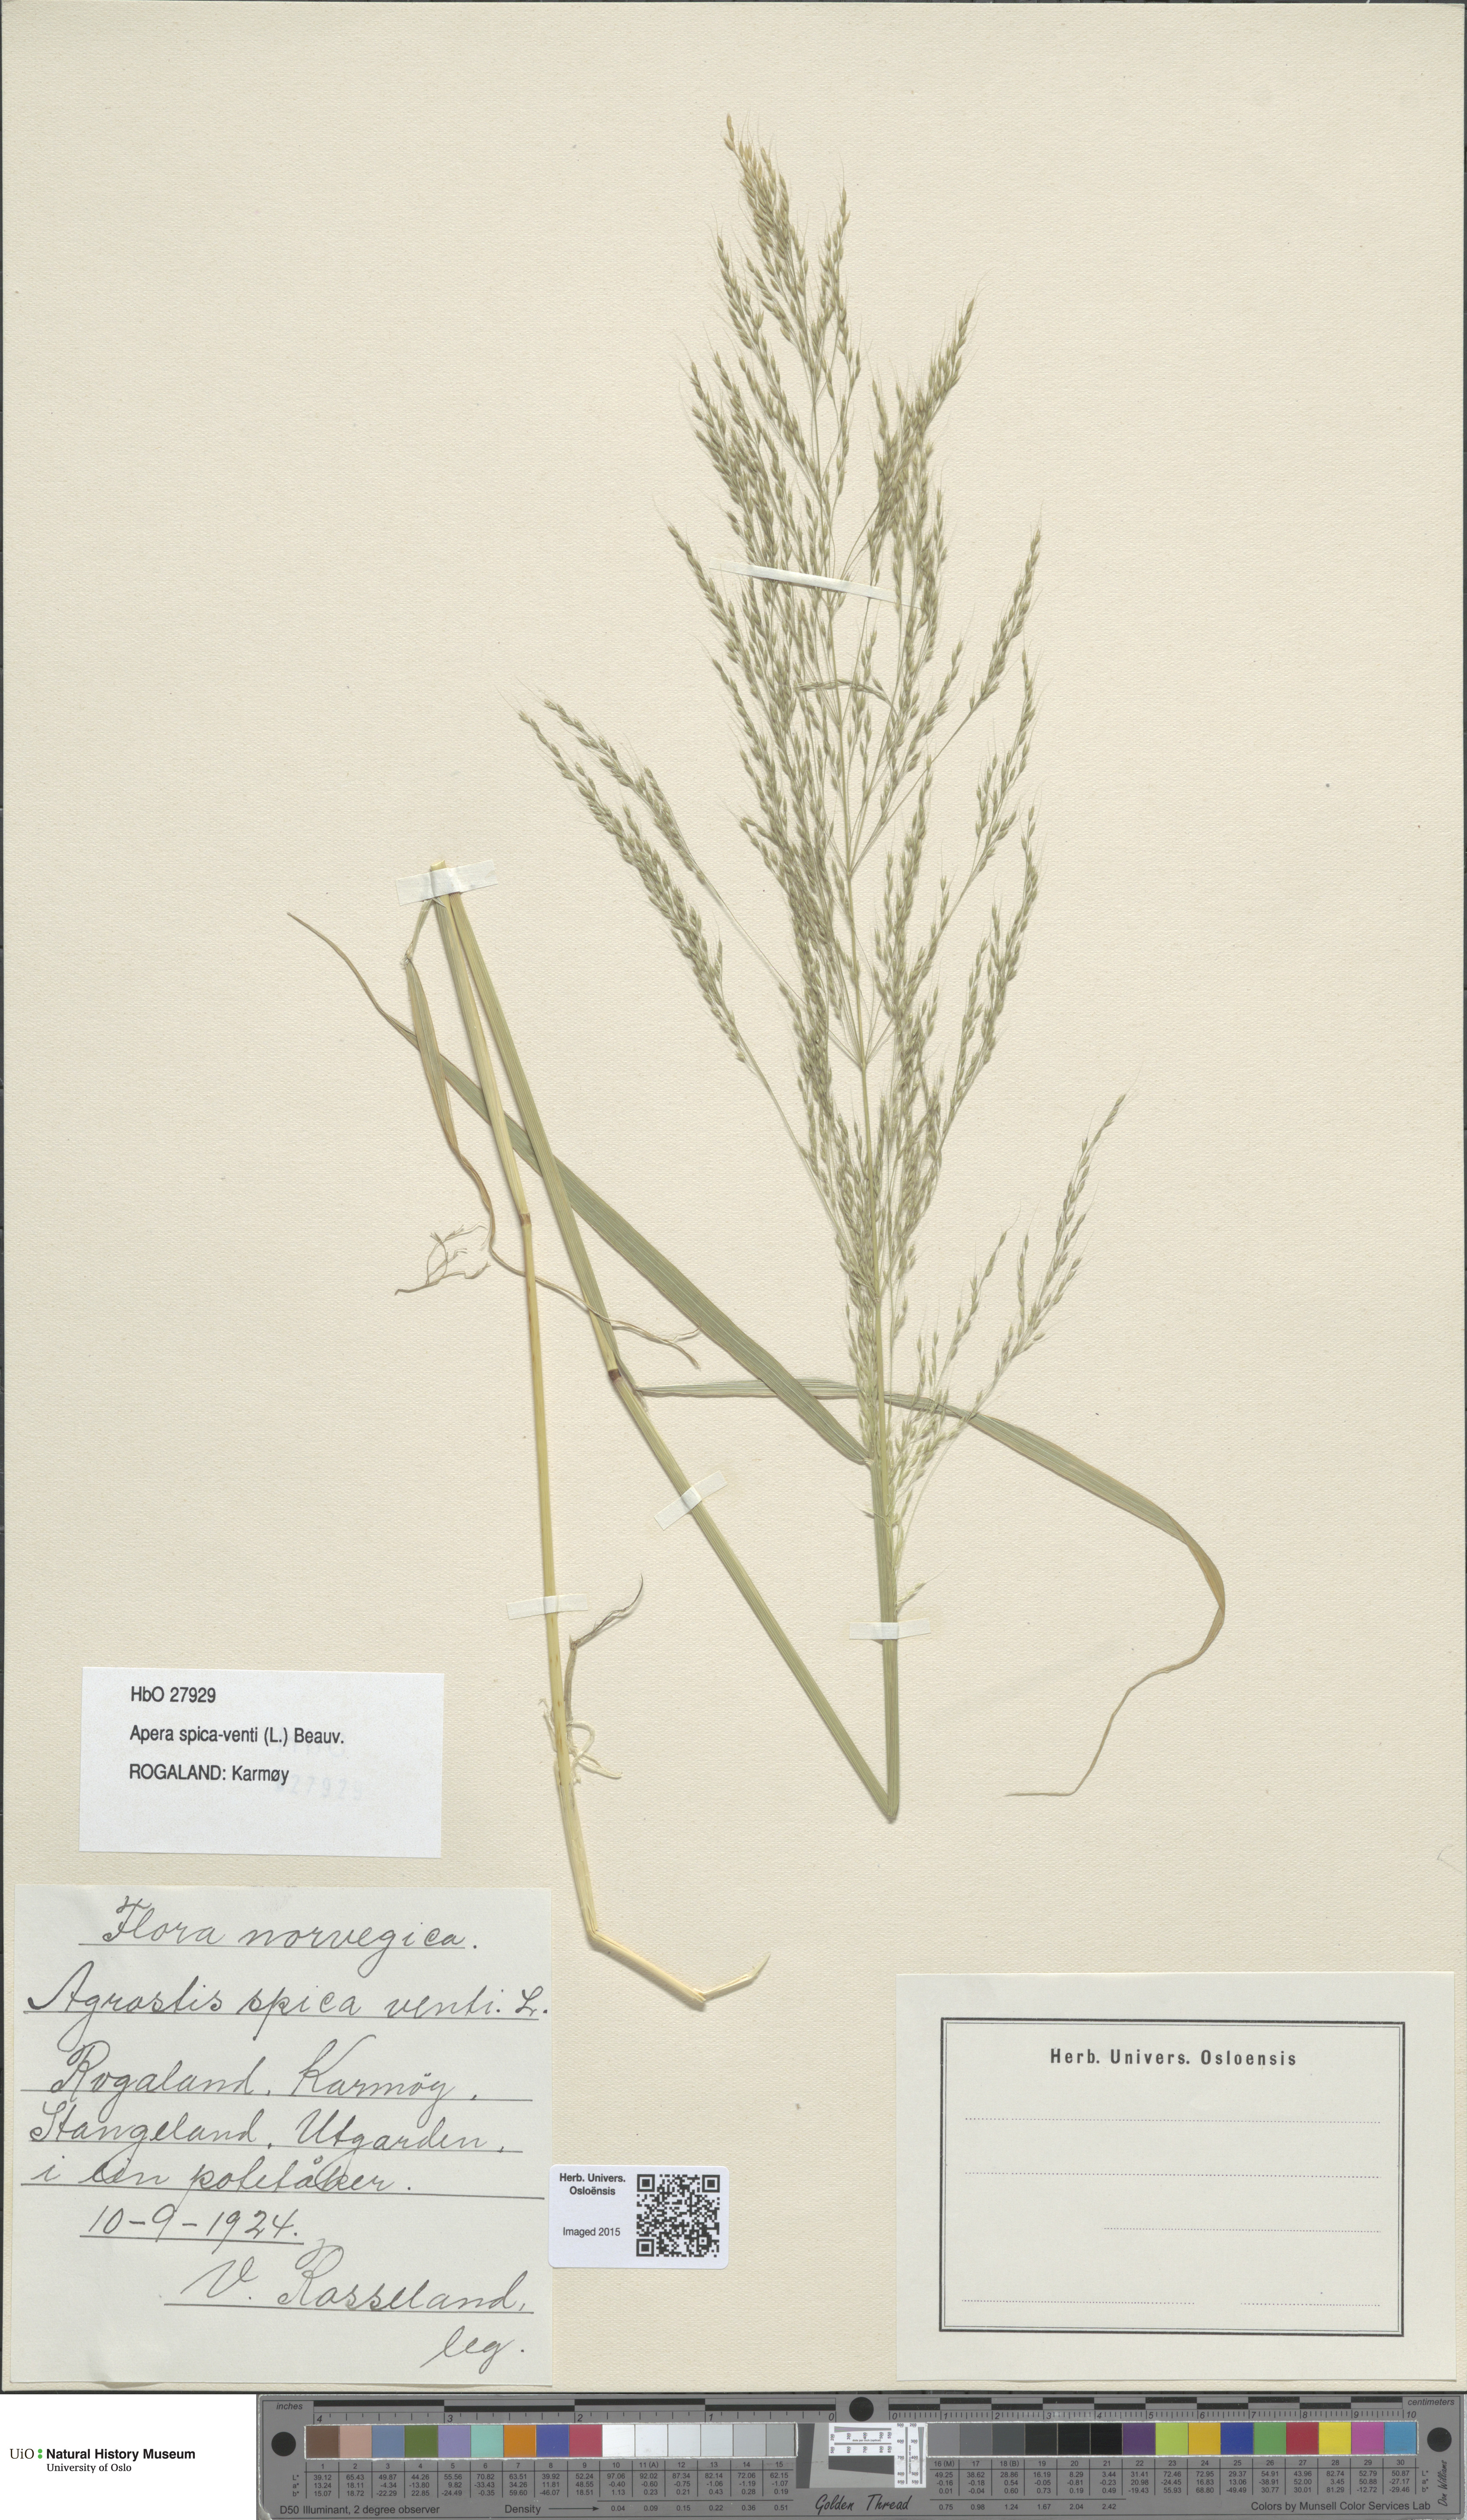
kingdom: Plantae
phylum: Tracheophyta
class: Liliopsida
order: Poales
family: Poaceae
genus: Apera
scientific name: Apera spica-venti
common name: Loose silky-bent
